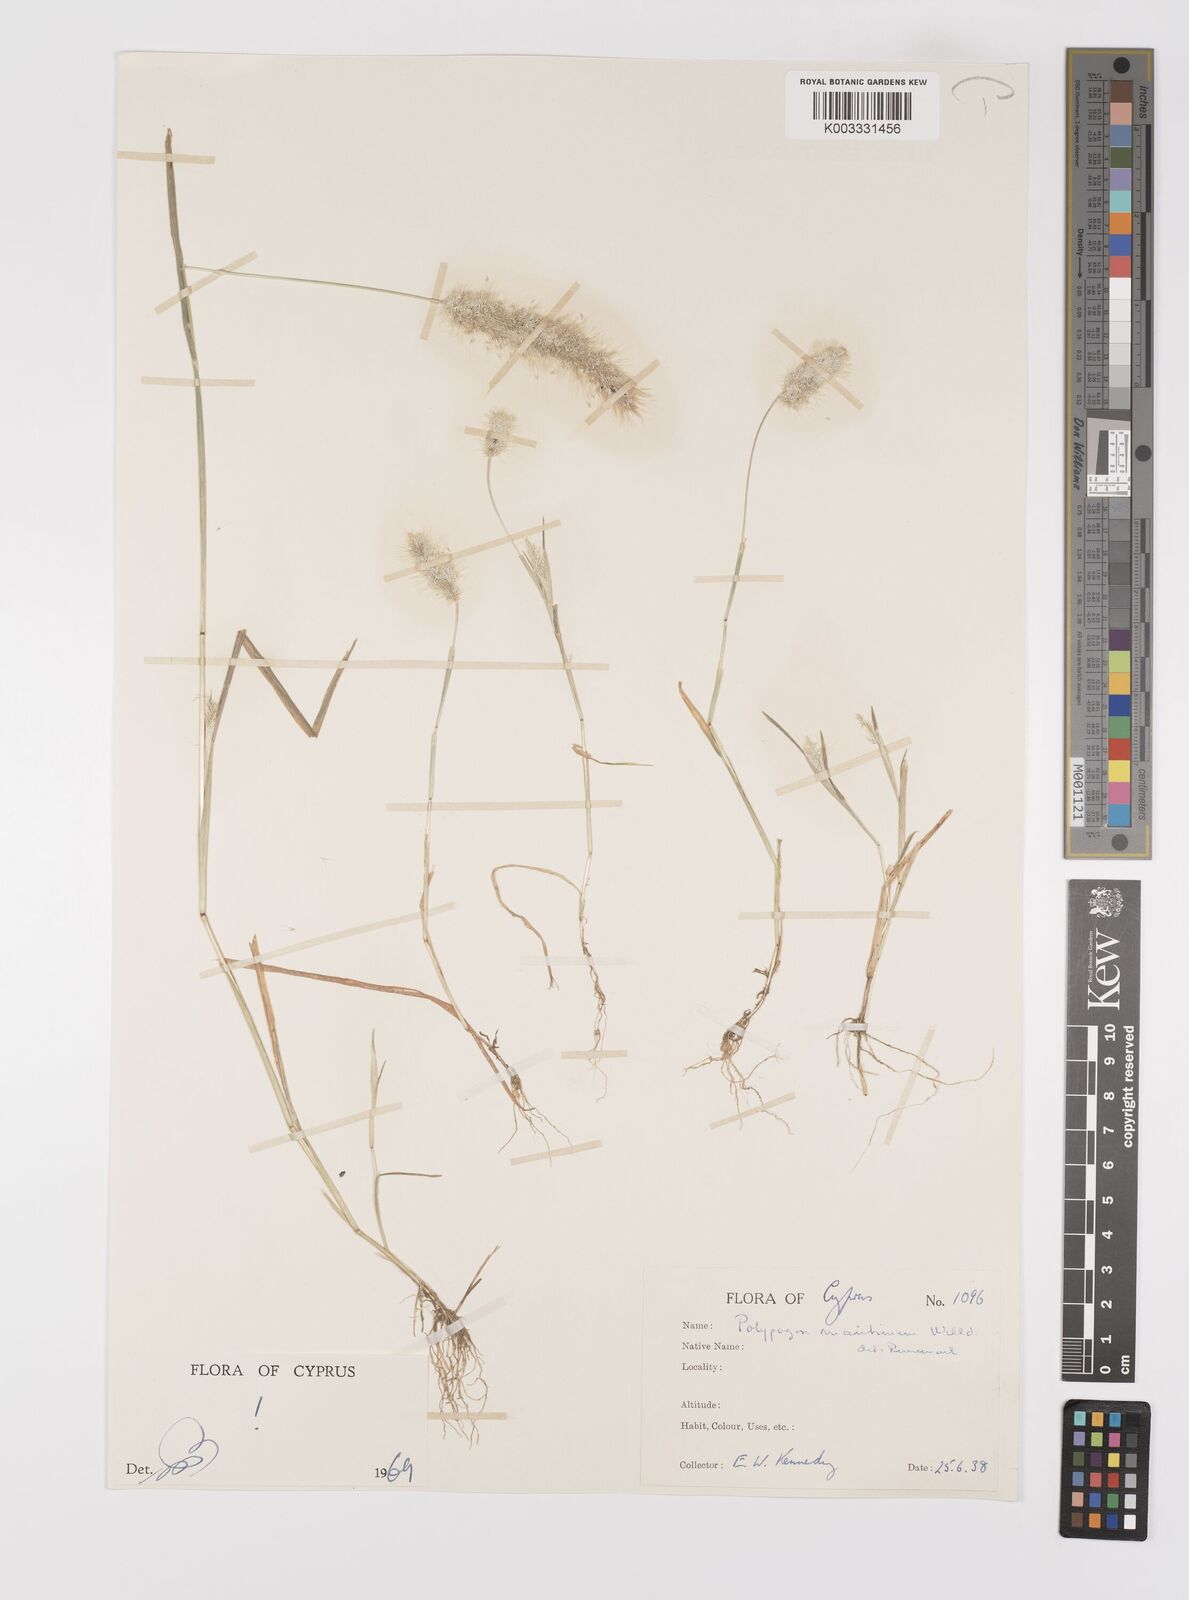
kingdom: Plantae
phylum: Tracheophyta
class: Liliopsida
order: Poales
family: Poaceae
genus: Polypogon
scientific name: Polypogon maritimus
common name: Mediterranean rabbitsfoot grass
